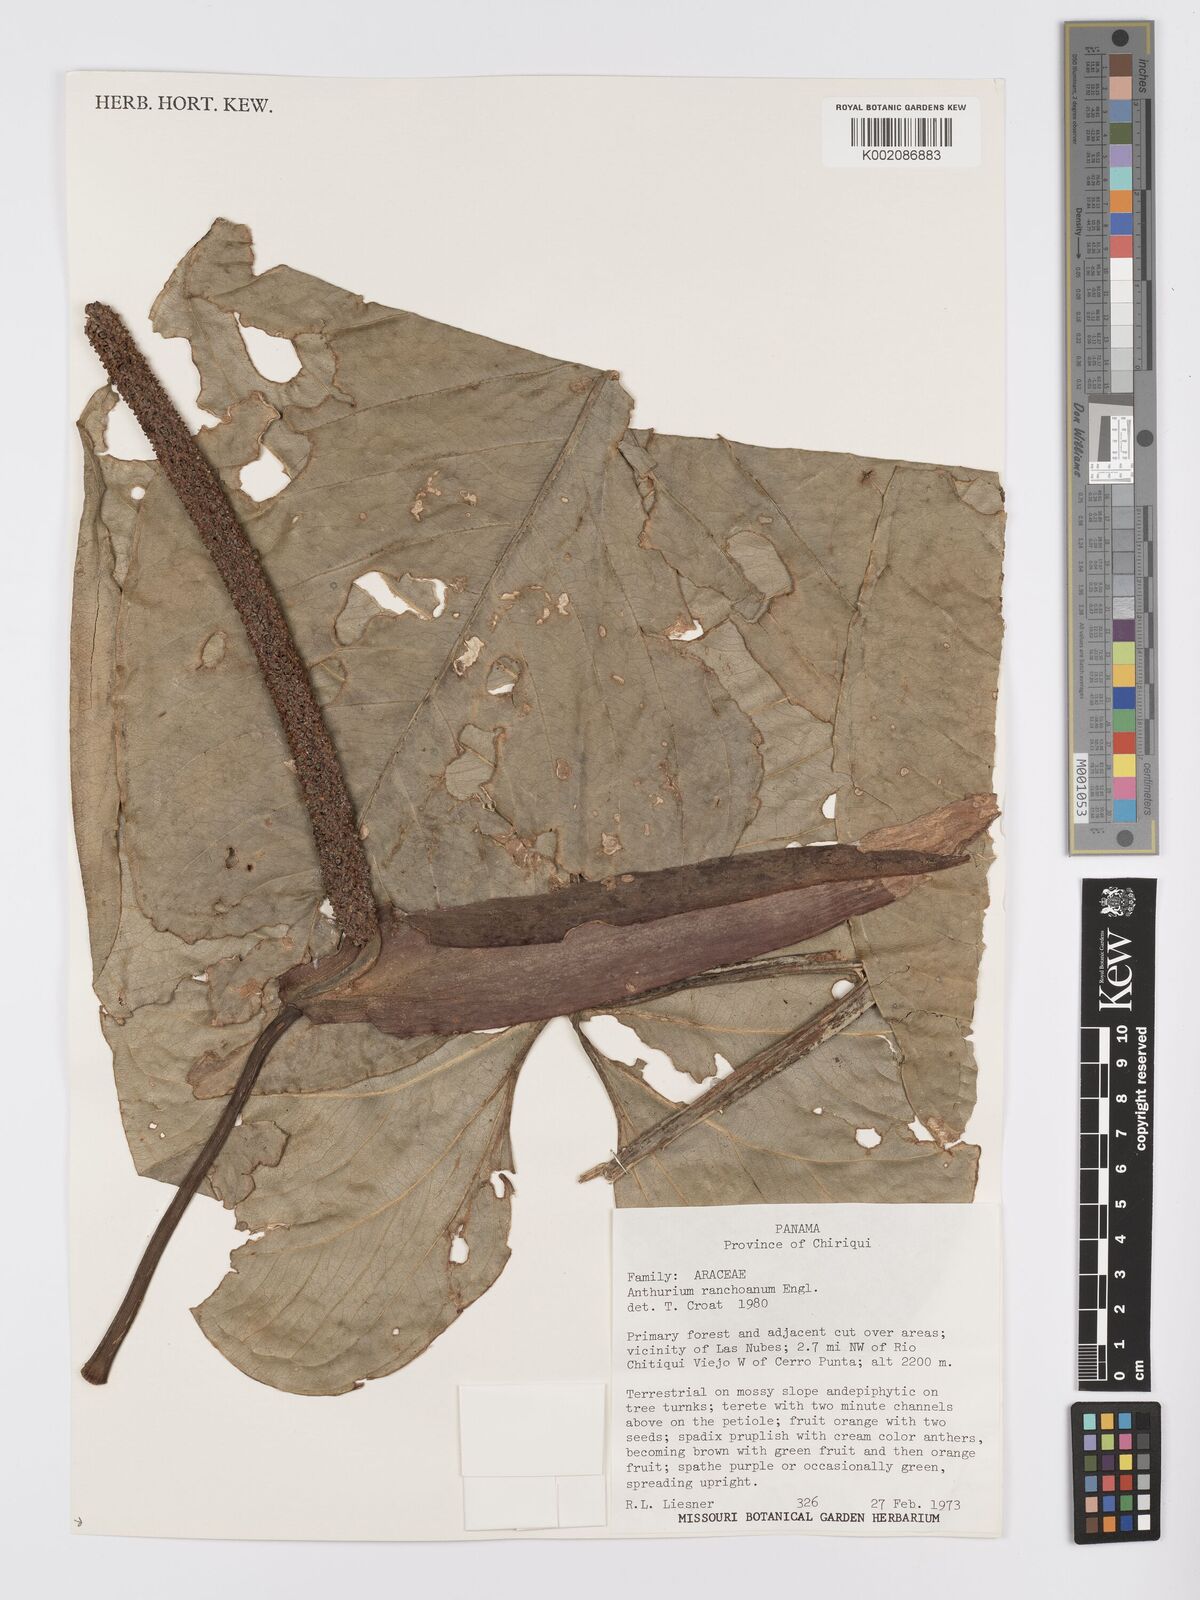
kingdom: Plantae
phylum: Tracheophyta
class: Liliopsida
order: Alismatales
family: Araceae
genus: Anthurium
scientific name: Anthurium ranchoanum
